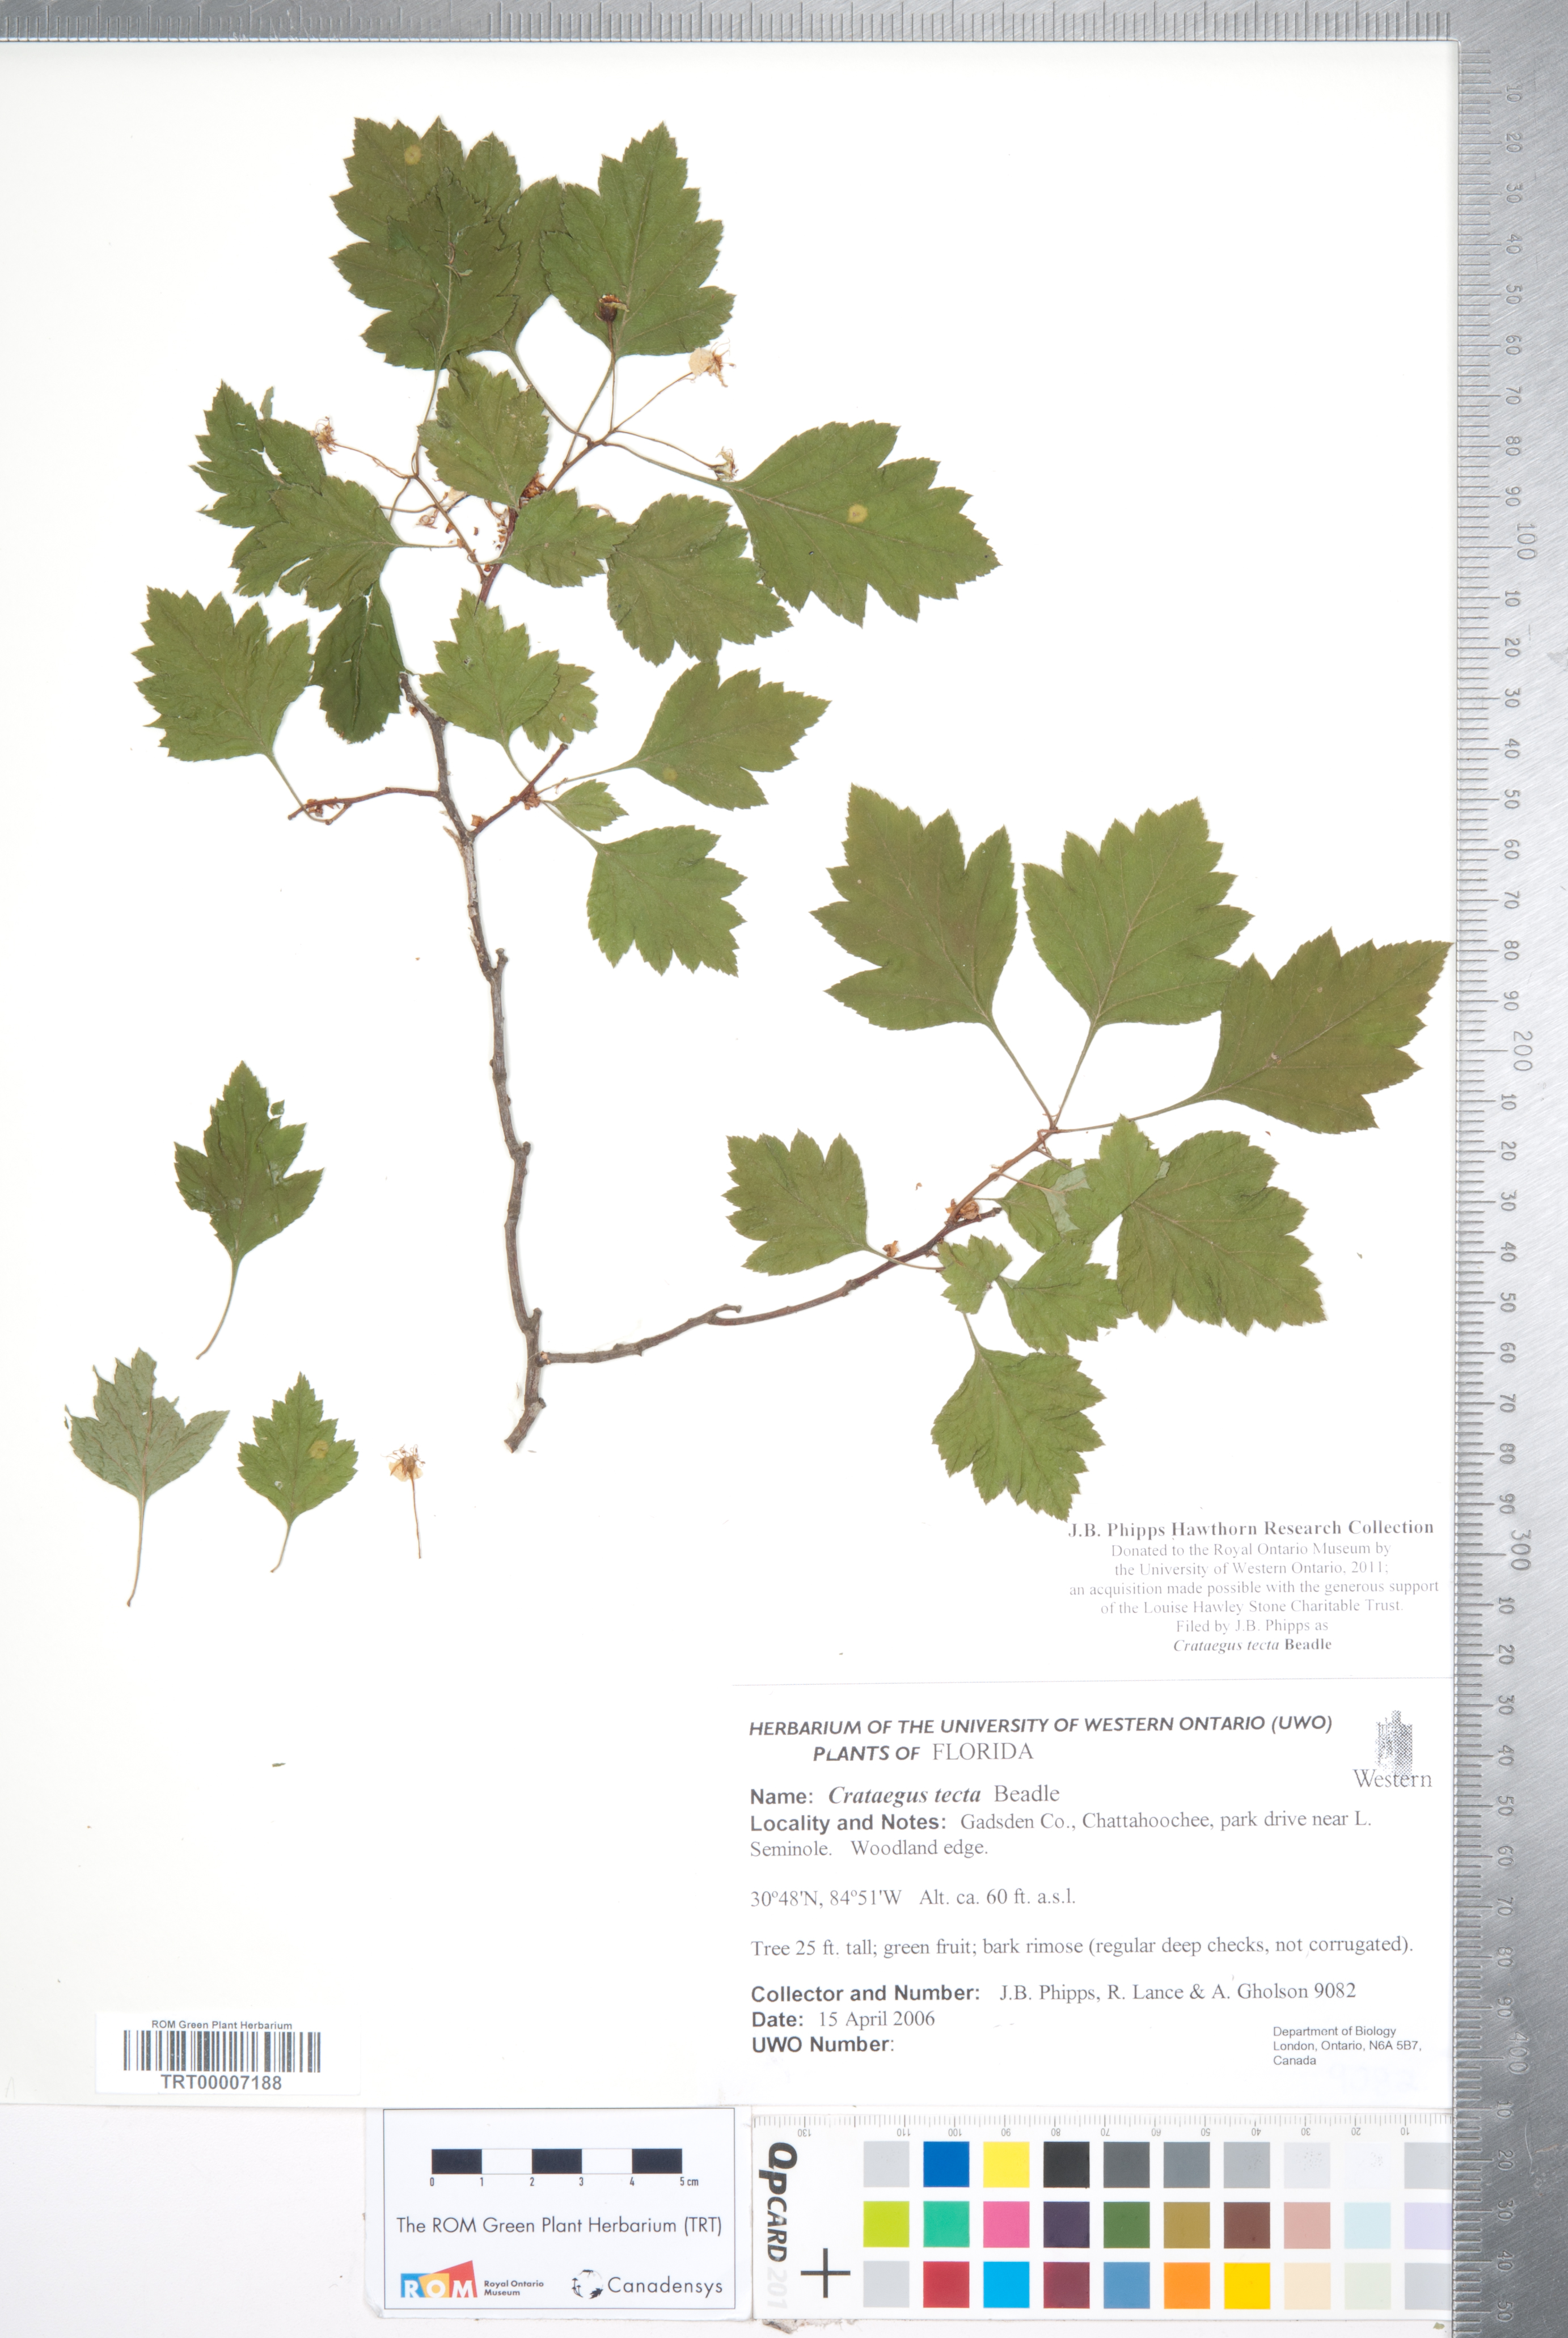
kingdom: Plantae
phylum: Tracheophyta
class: Magnoliopsida
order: Rosales
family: Rosaceae
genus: Crataegus
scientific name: Crataegus pulcherrima
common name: Beautiful hawthorn
